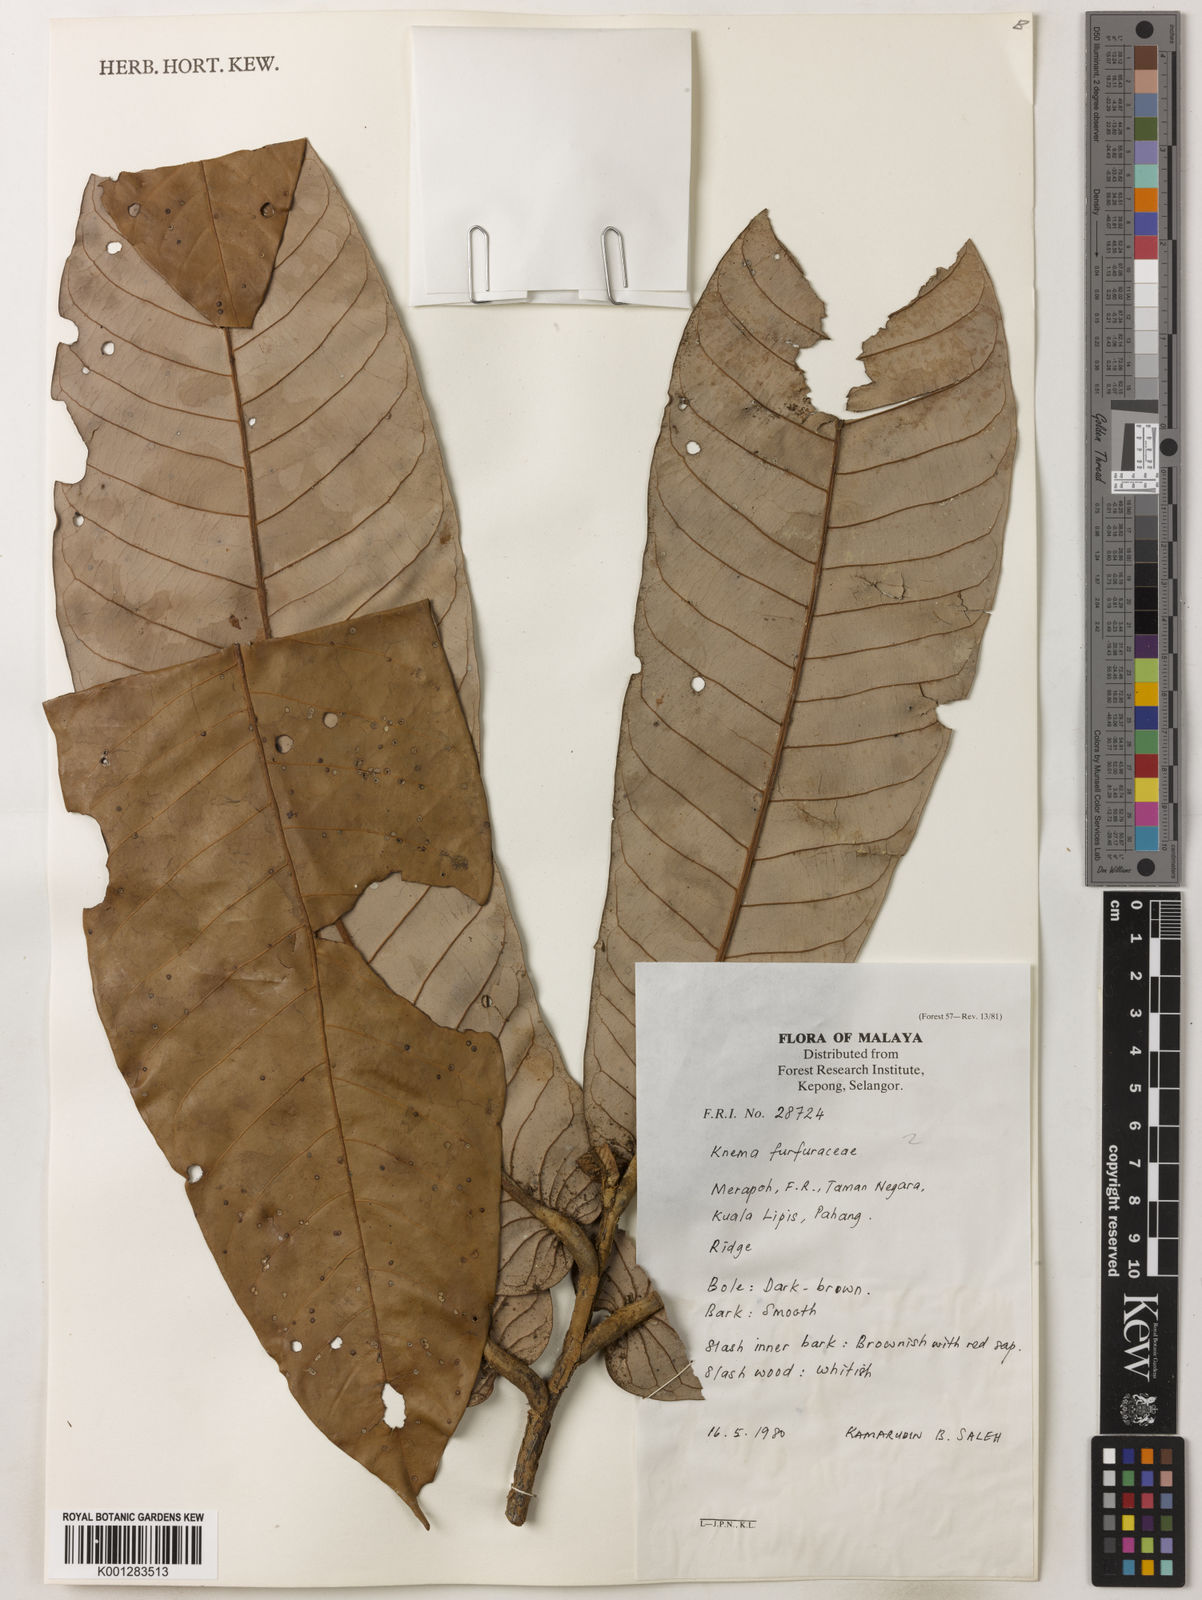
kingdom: Plantae
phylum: Tracheophyta
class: Magnoliopsida
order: Magnoliales
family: Myristicaceae
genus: Knema
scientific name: Knema furfuracea
